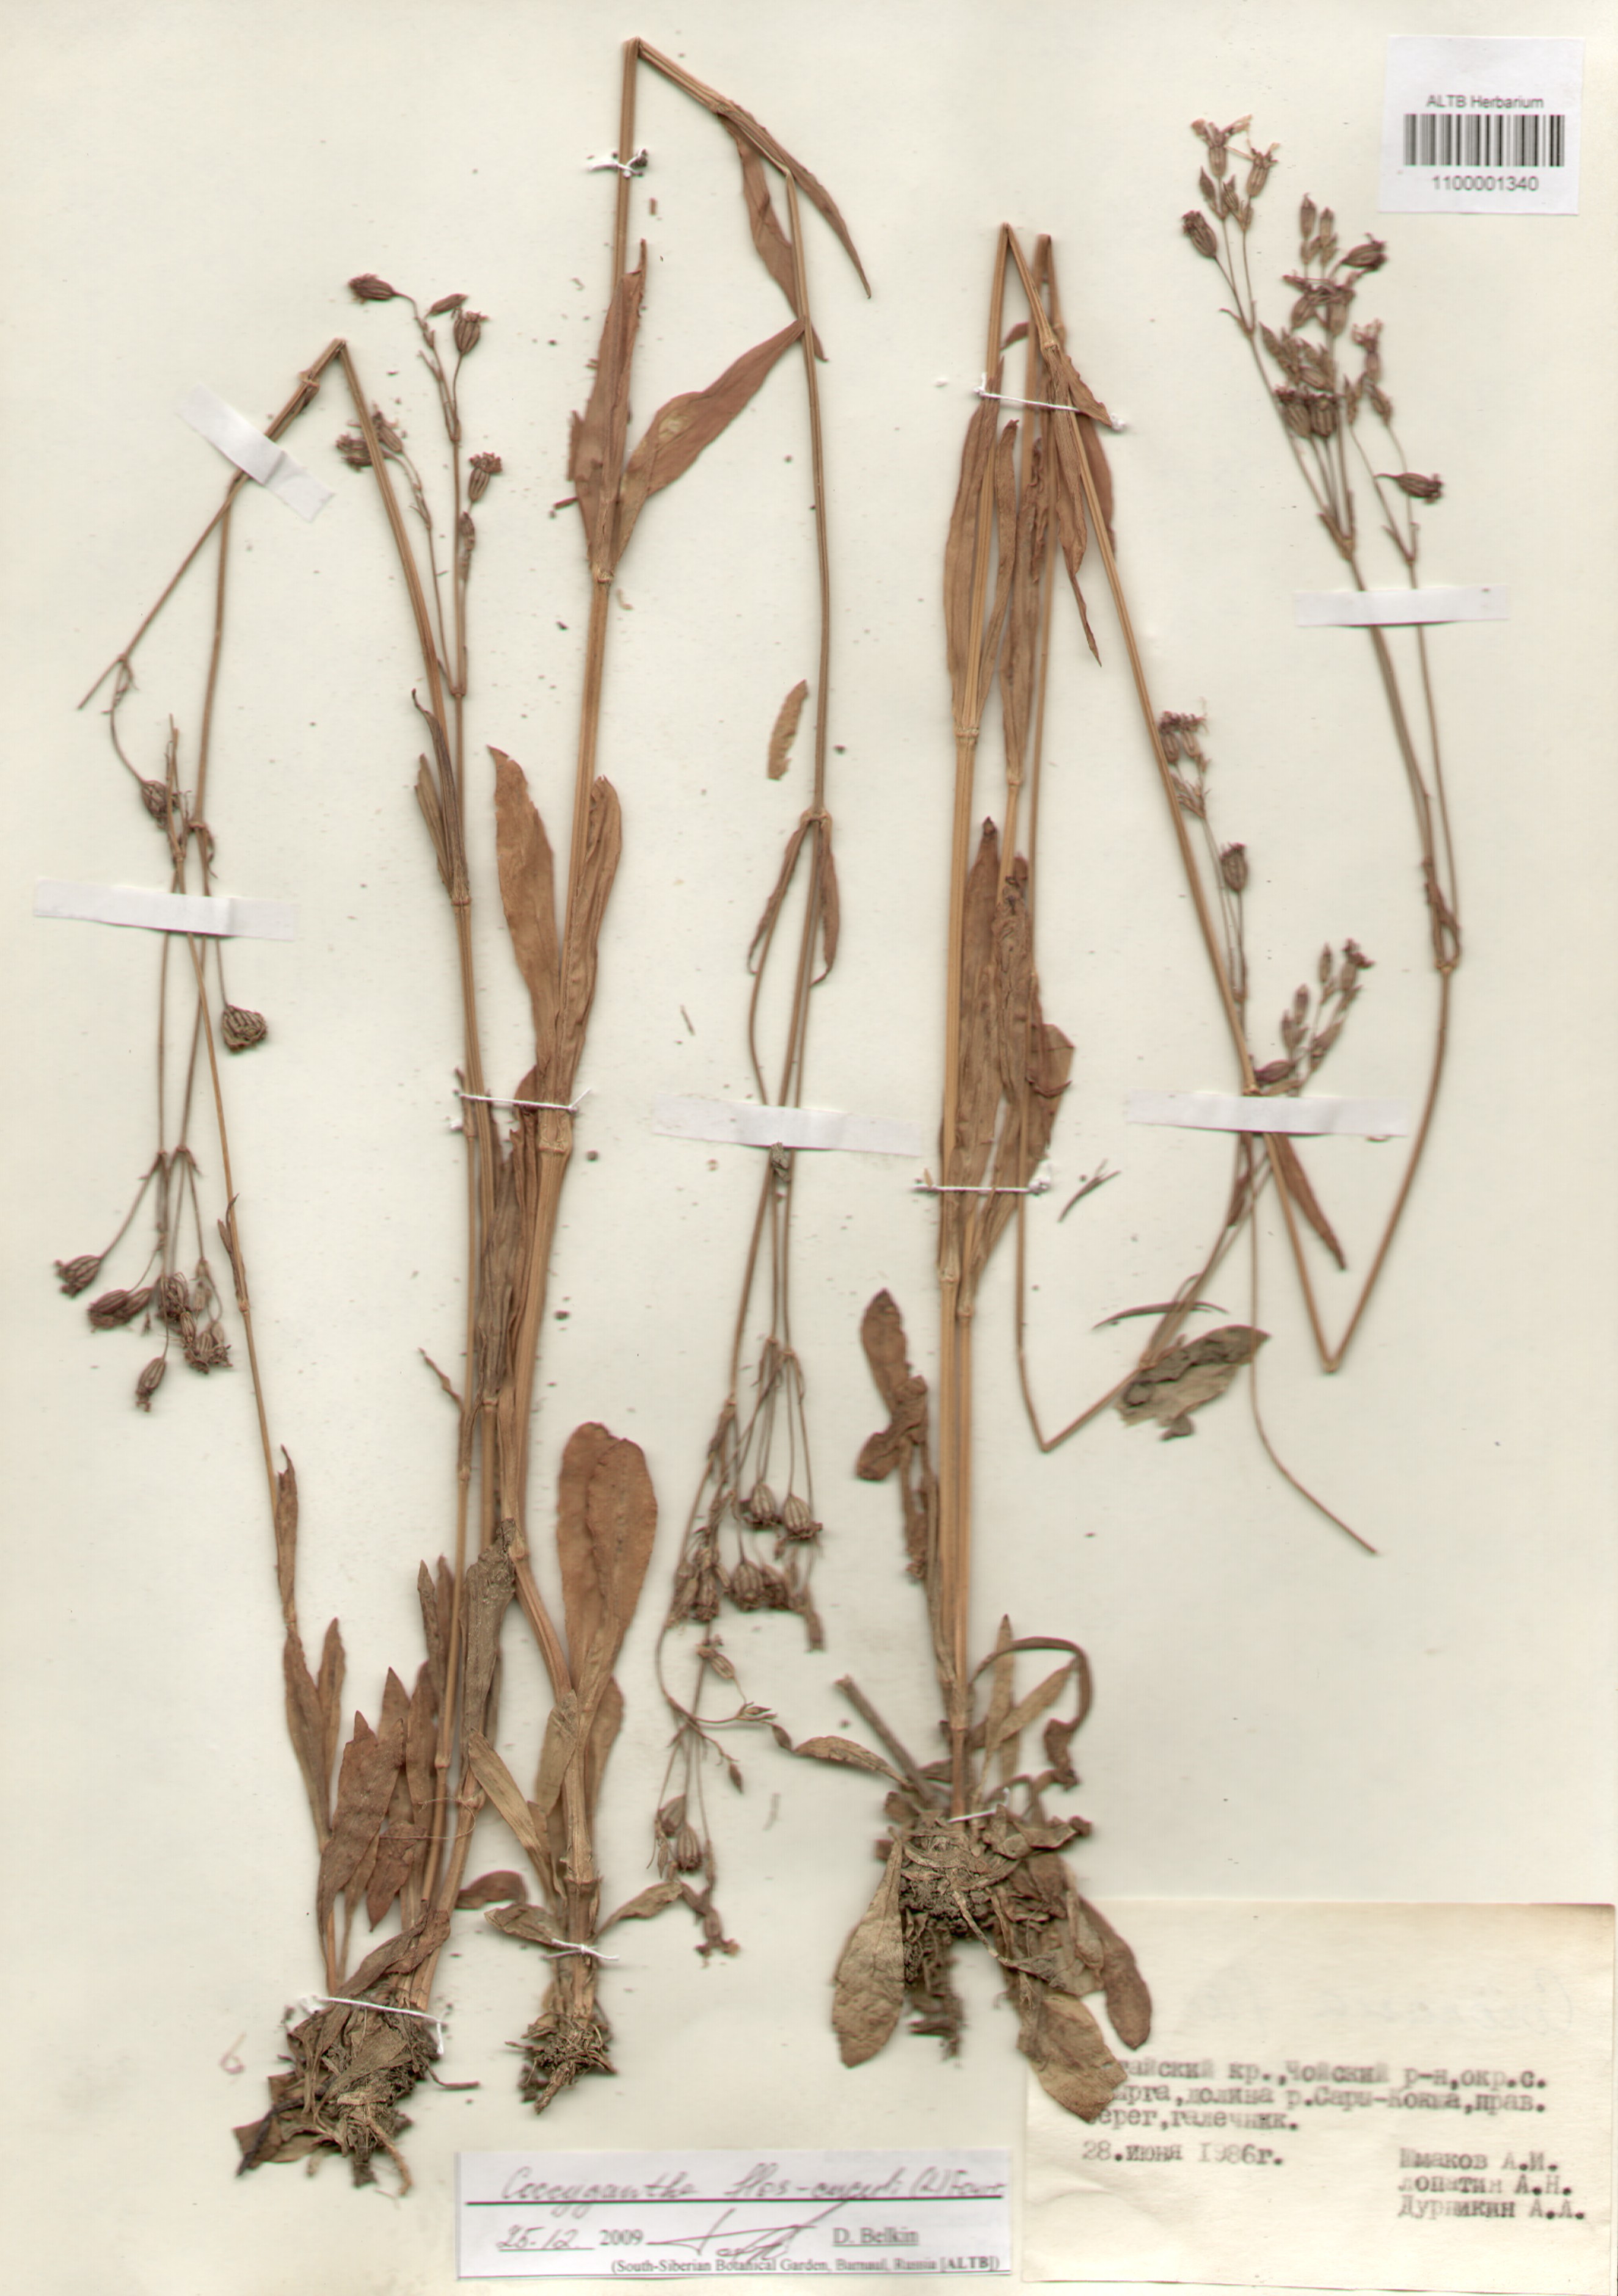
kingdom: Plantae
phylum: Tracheophyta
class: Magnoliopsida
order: Caryophyllales
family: Caryophyllaceae
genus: Silene
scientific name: Silene flos-cuculi
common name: Ragged-robin
